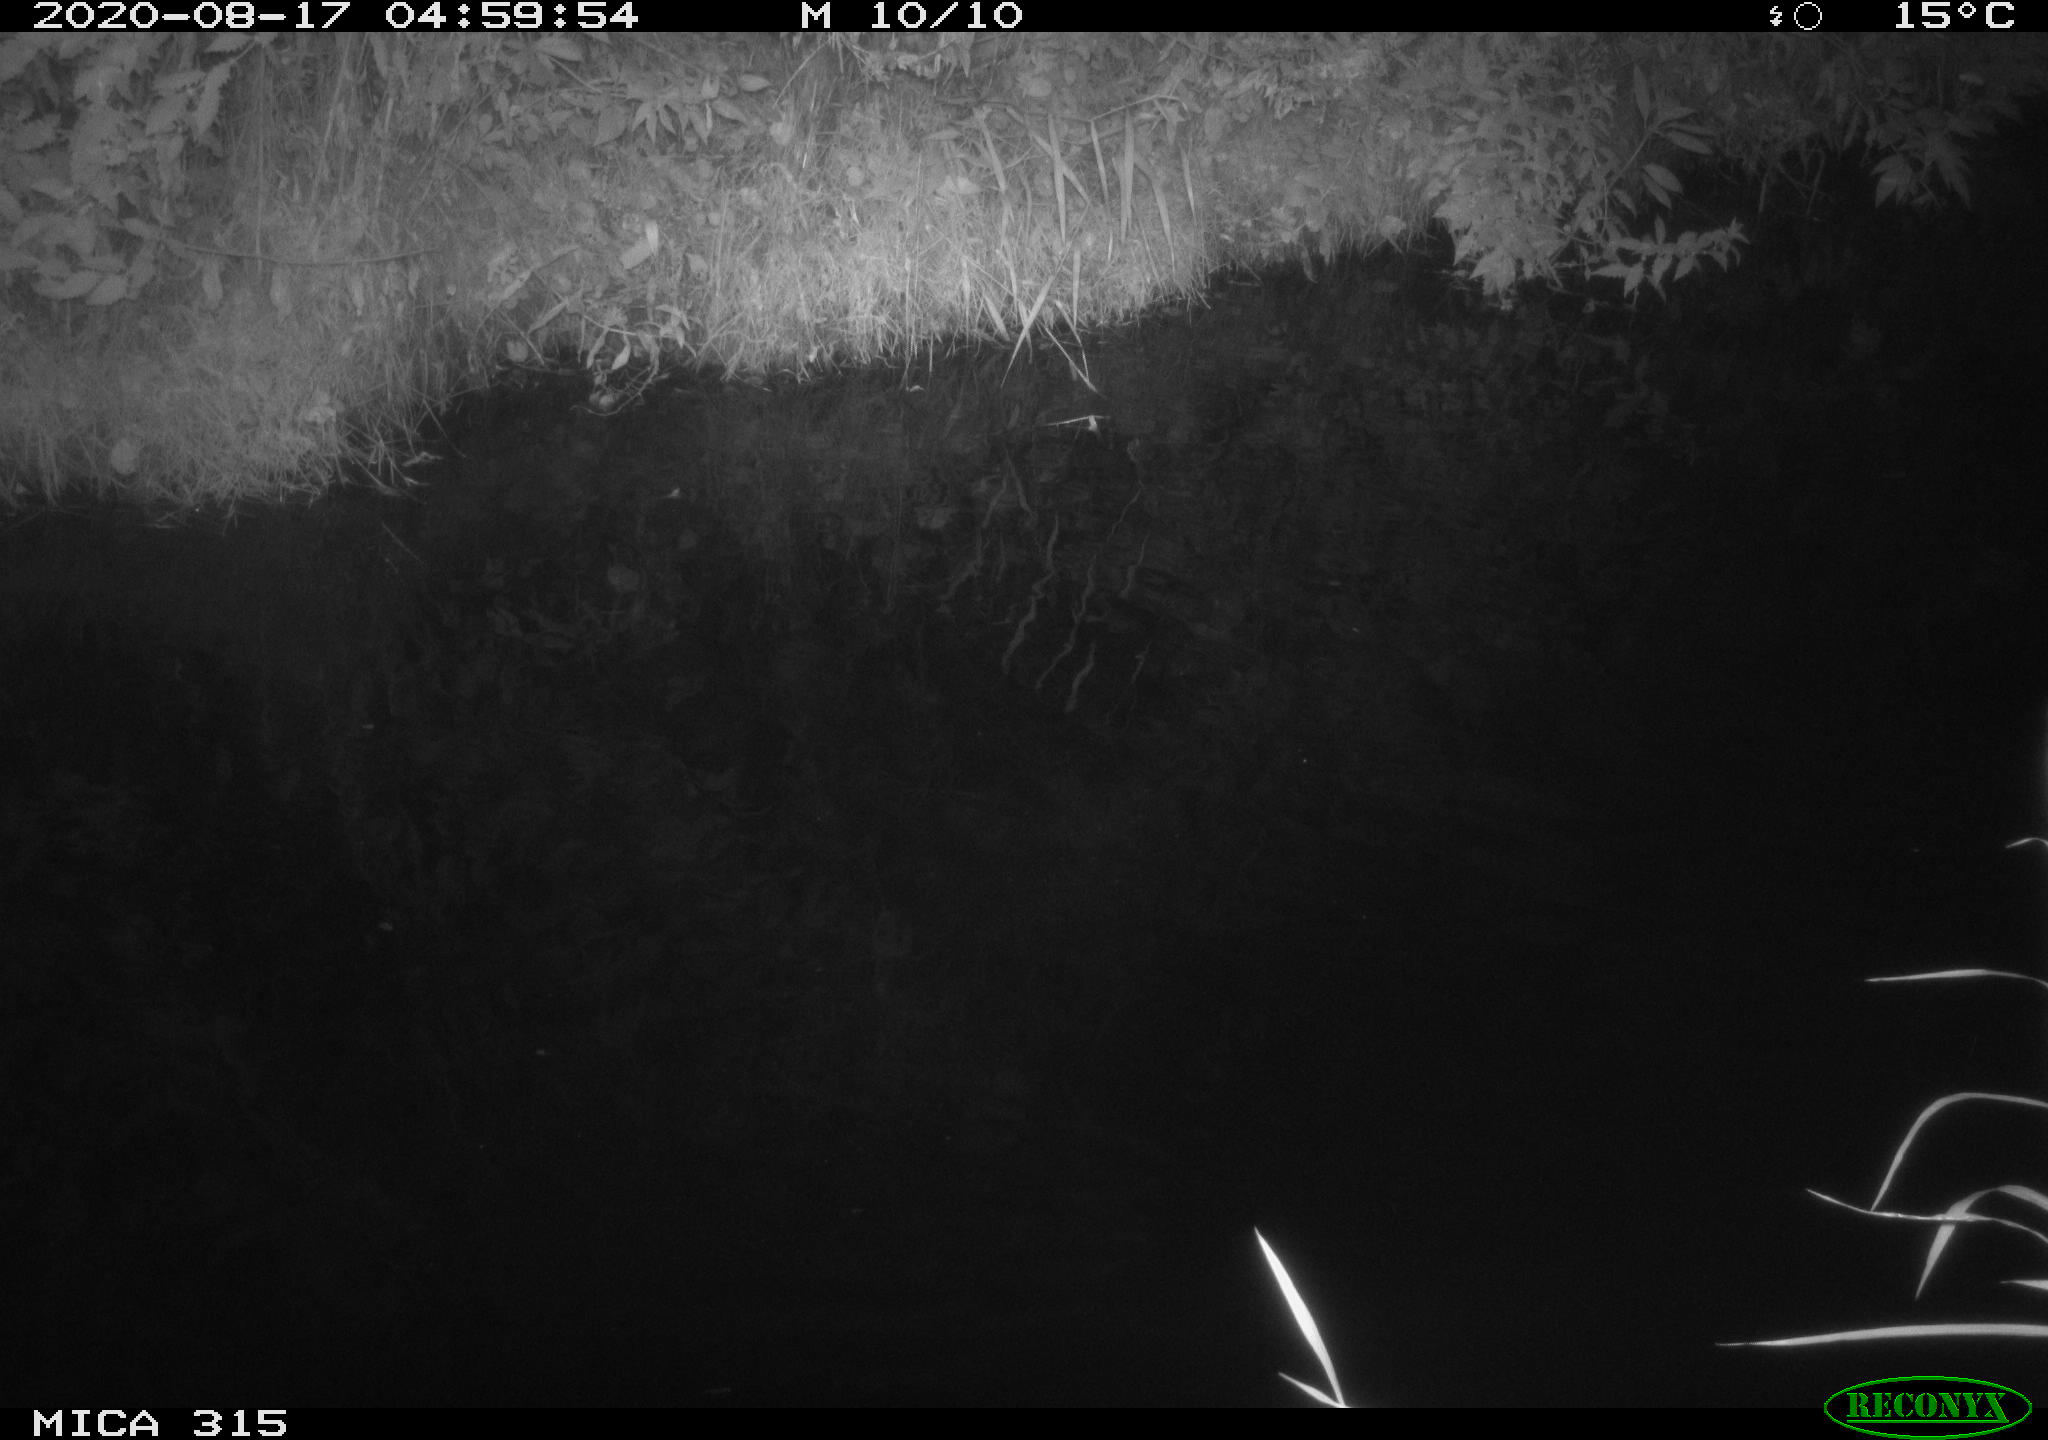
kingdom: Animalia
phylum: Chordata
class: Aves
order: Anseriformes
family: Anatidae
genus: Anas
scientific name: Anas platyrhynchos
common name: Mallard
